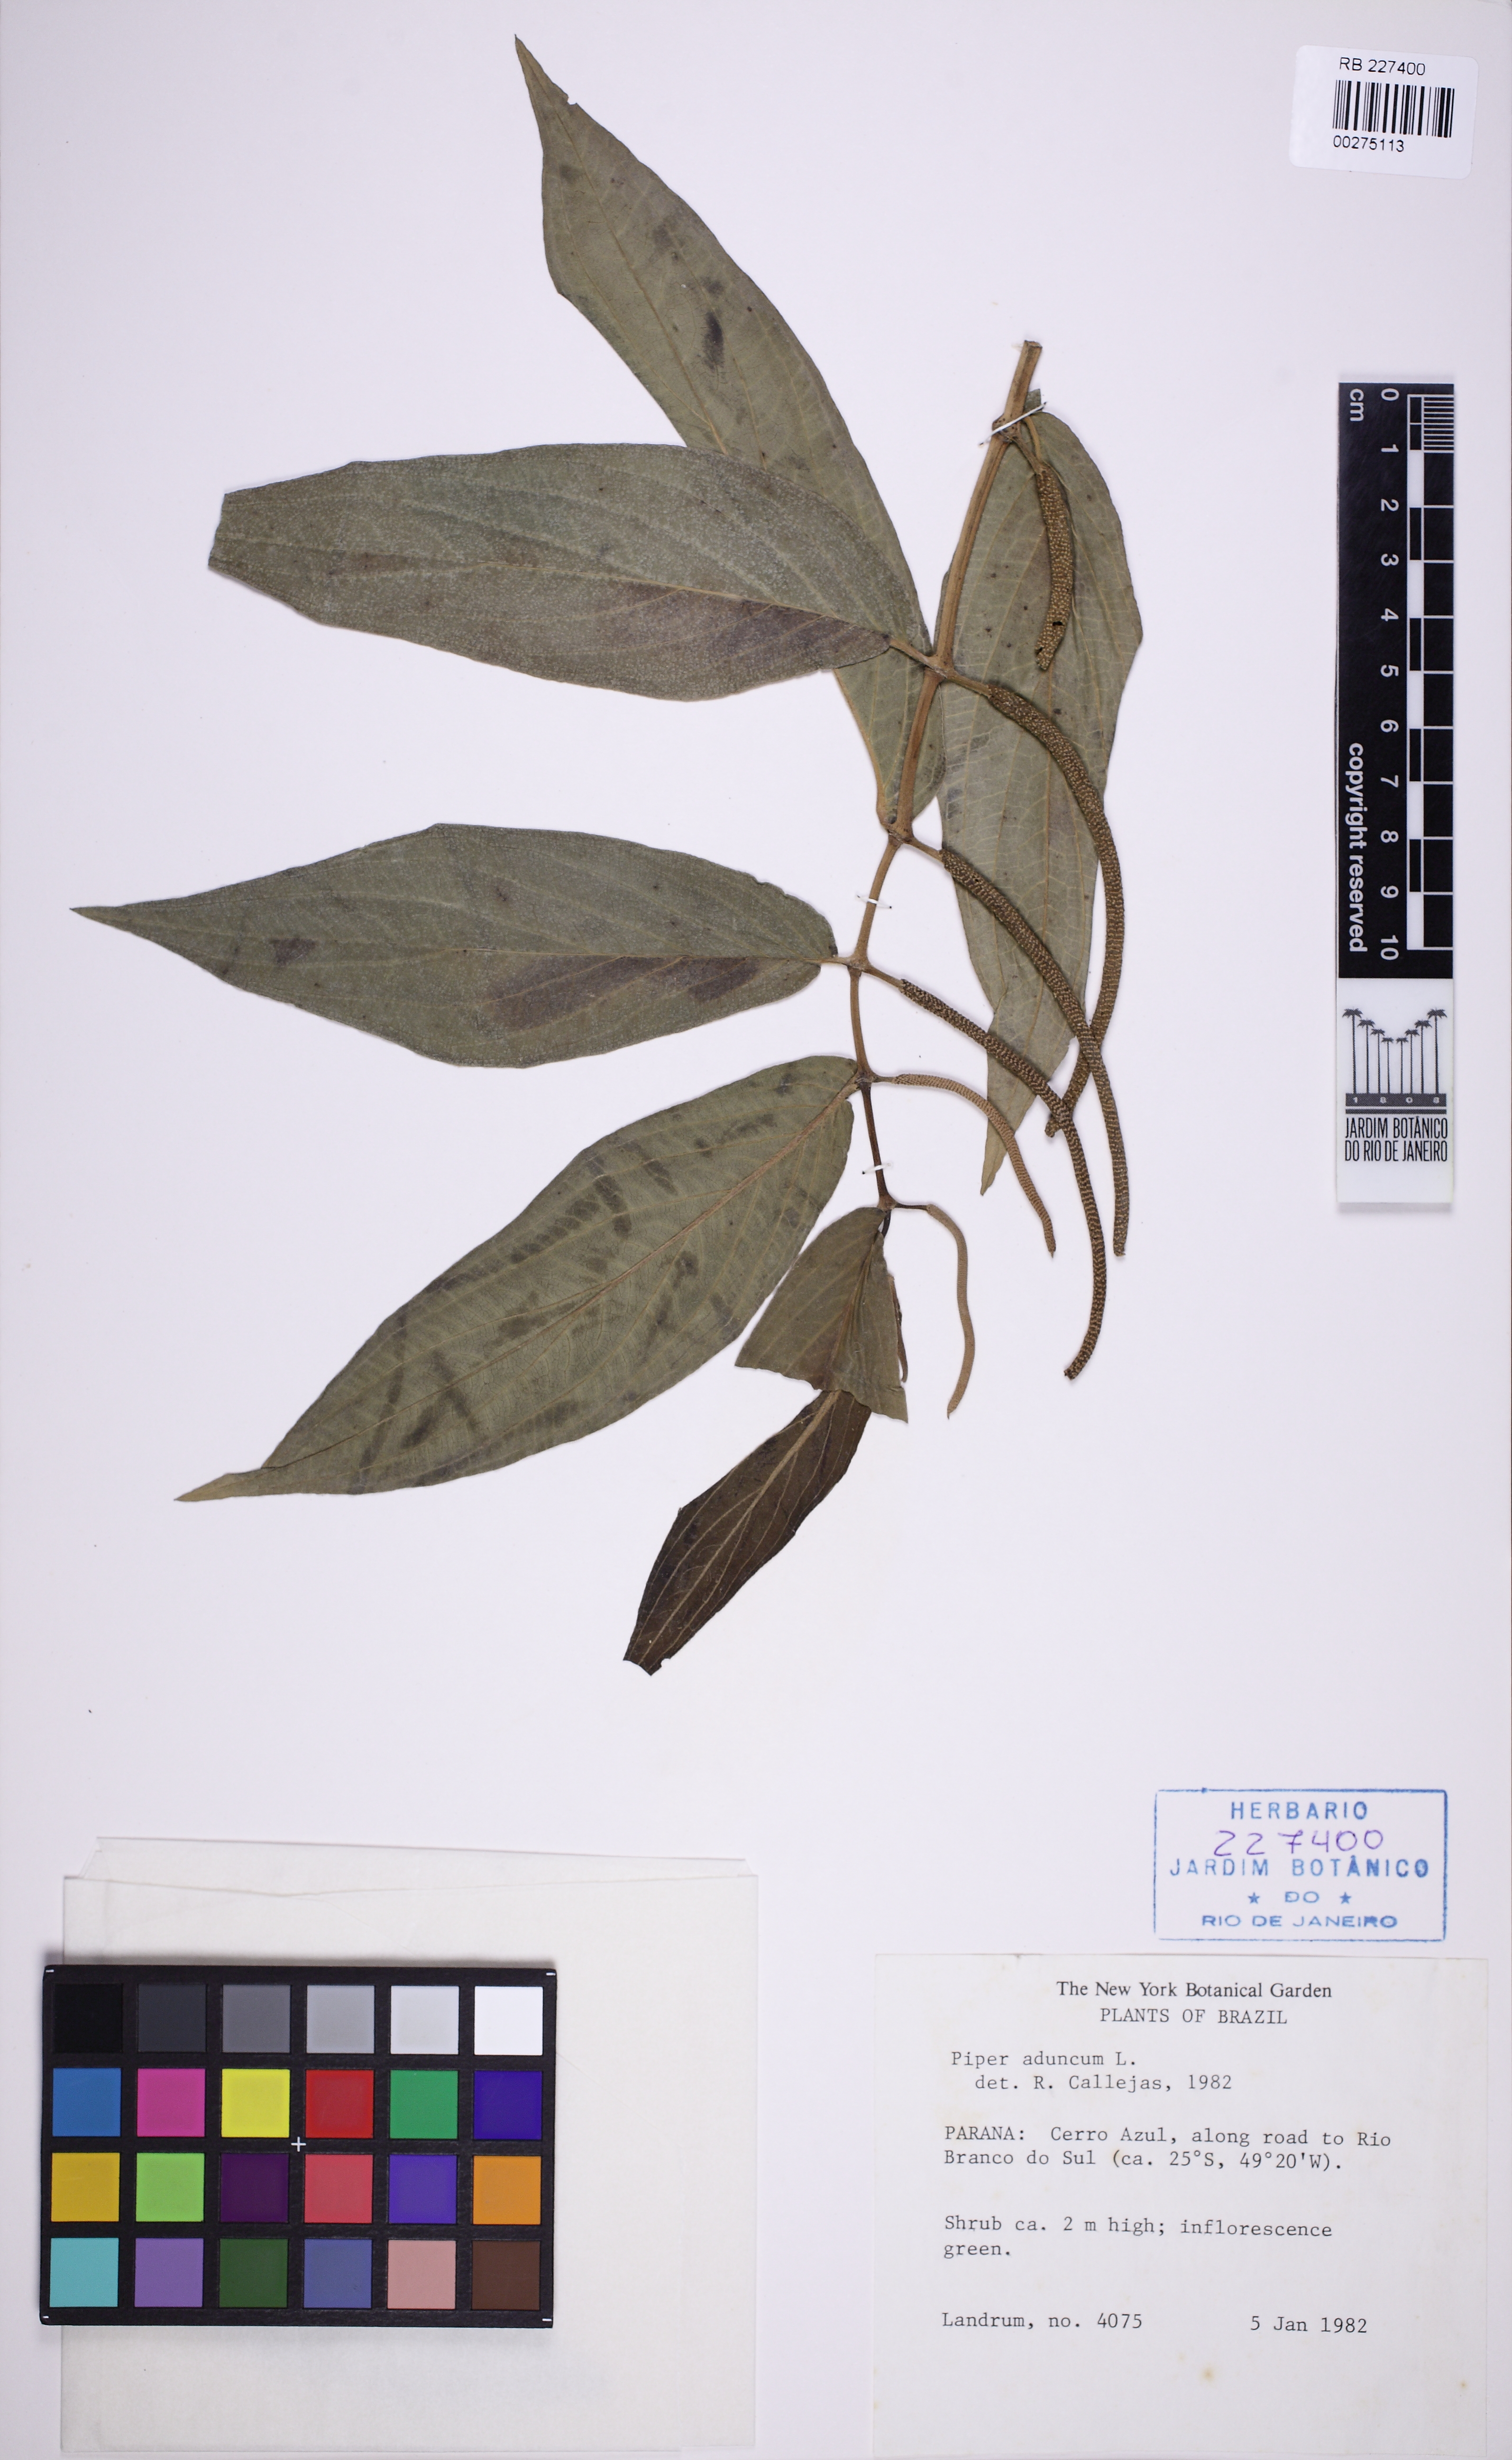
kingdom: Plantae
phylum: Tracheophyta
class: Magnoliopsida
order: Piperales
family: Piperaceae
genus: Piper
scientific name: Piper aduncum
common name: Spiked pepper
